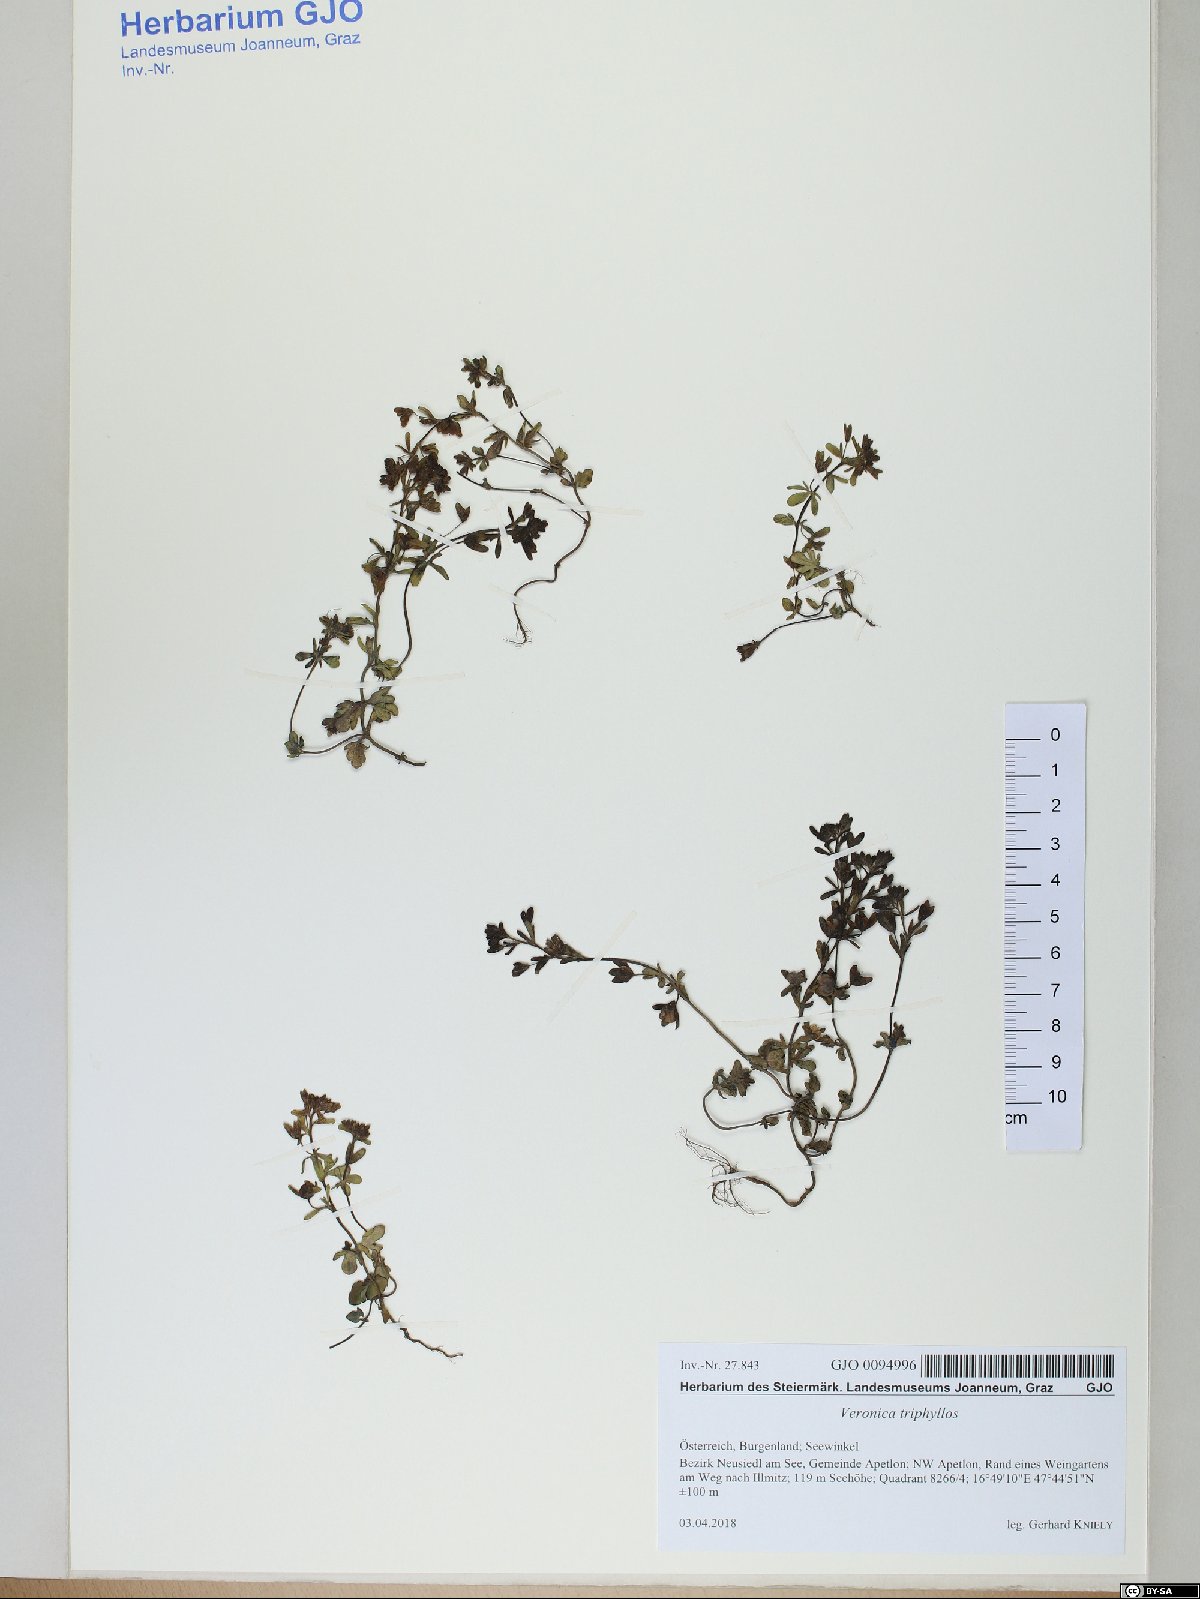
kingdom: Plantae
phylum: Tracheophyta
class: Magnoliopsida
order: Lamiales
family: Plantaginaceae
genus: Veronica
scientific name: Veronica triphyllos
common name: Fingered speedwell
